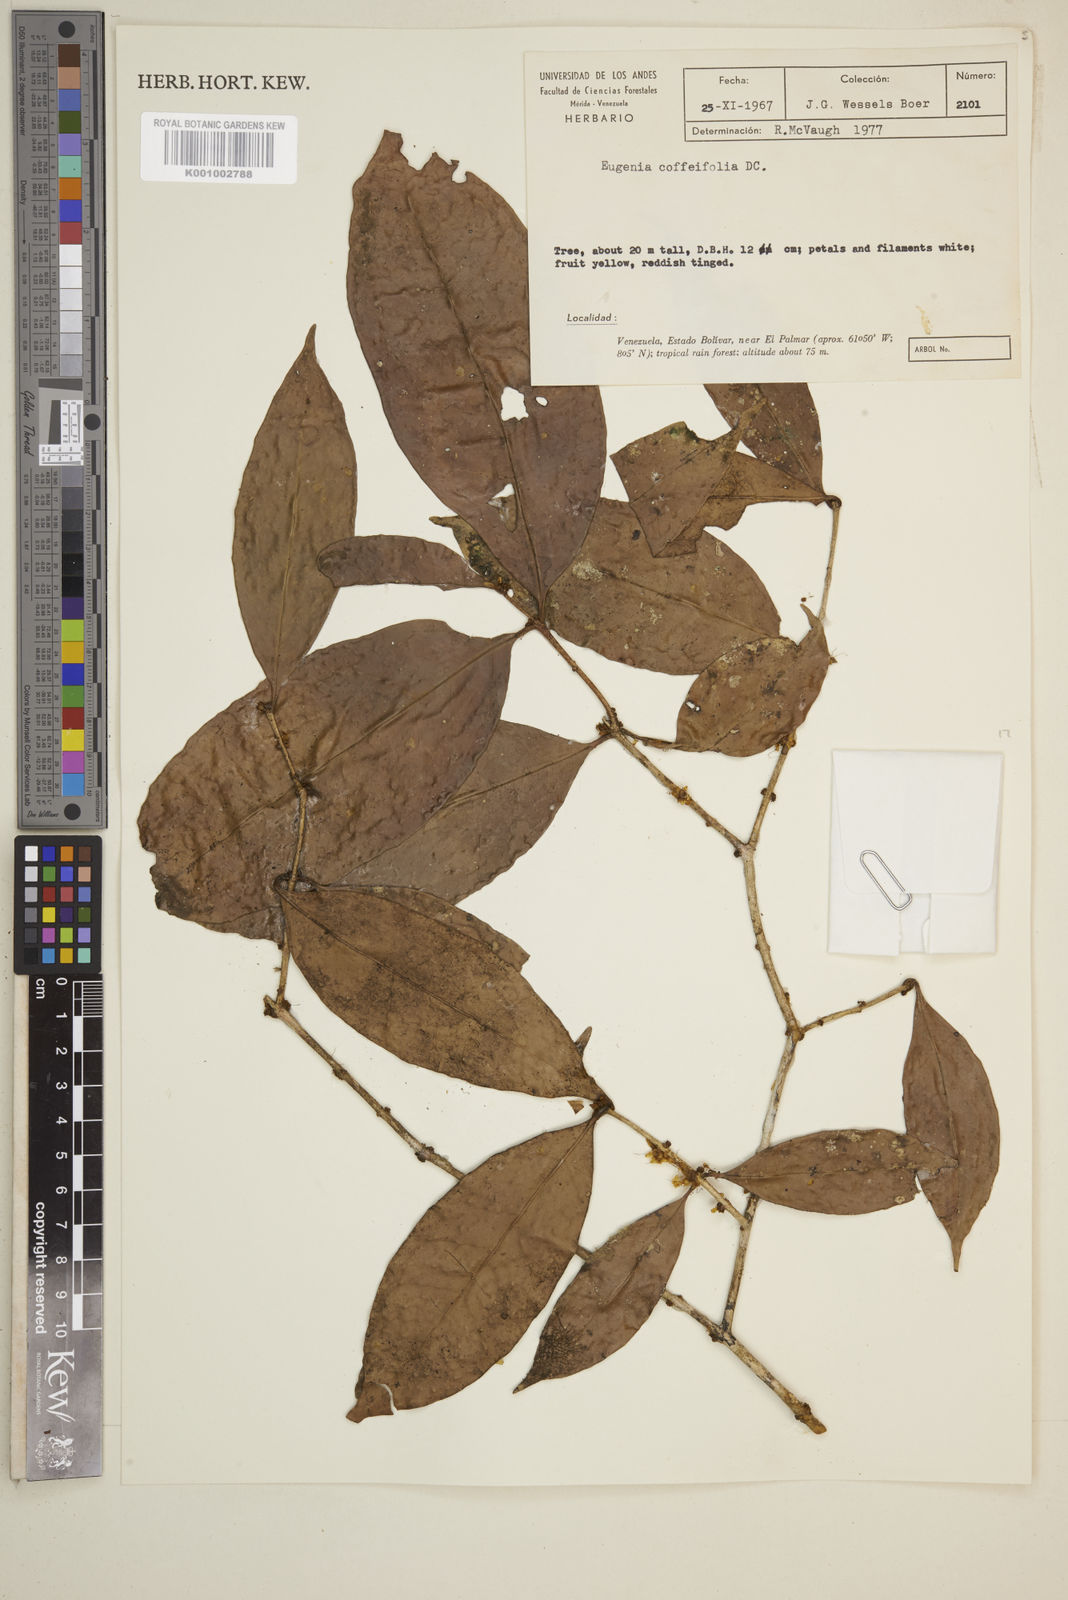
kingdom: Plantae
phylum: Tracheophyta
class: Magnoliopsida
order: Myrtales
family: Myrtaceae
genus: Eugenia
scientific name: Eugenia coffeifolia
